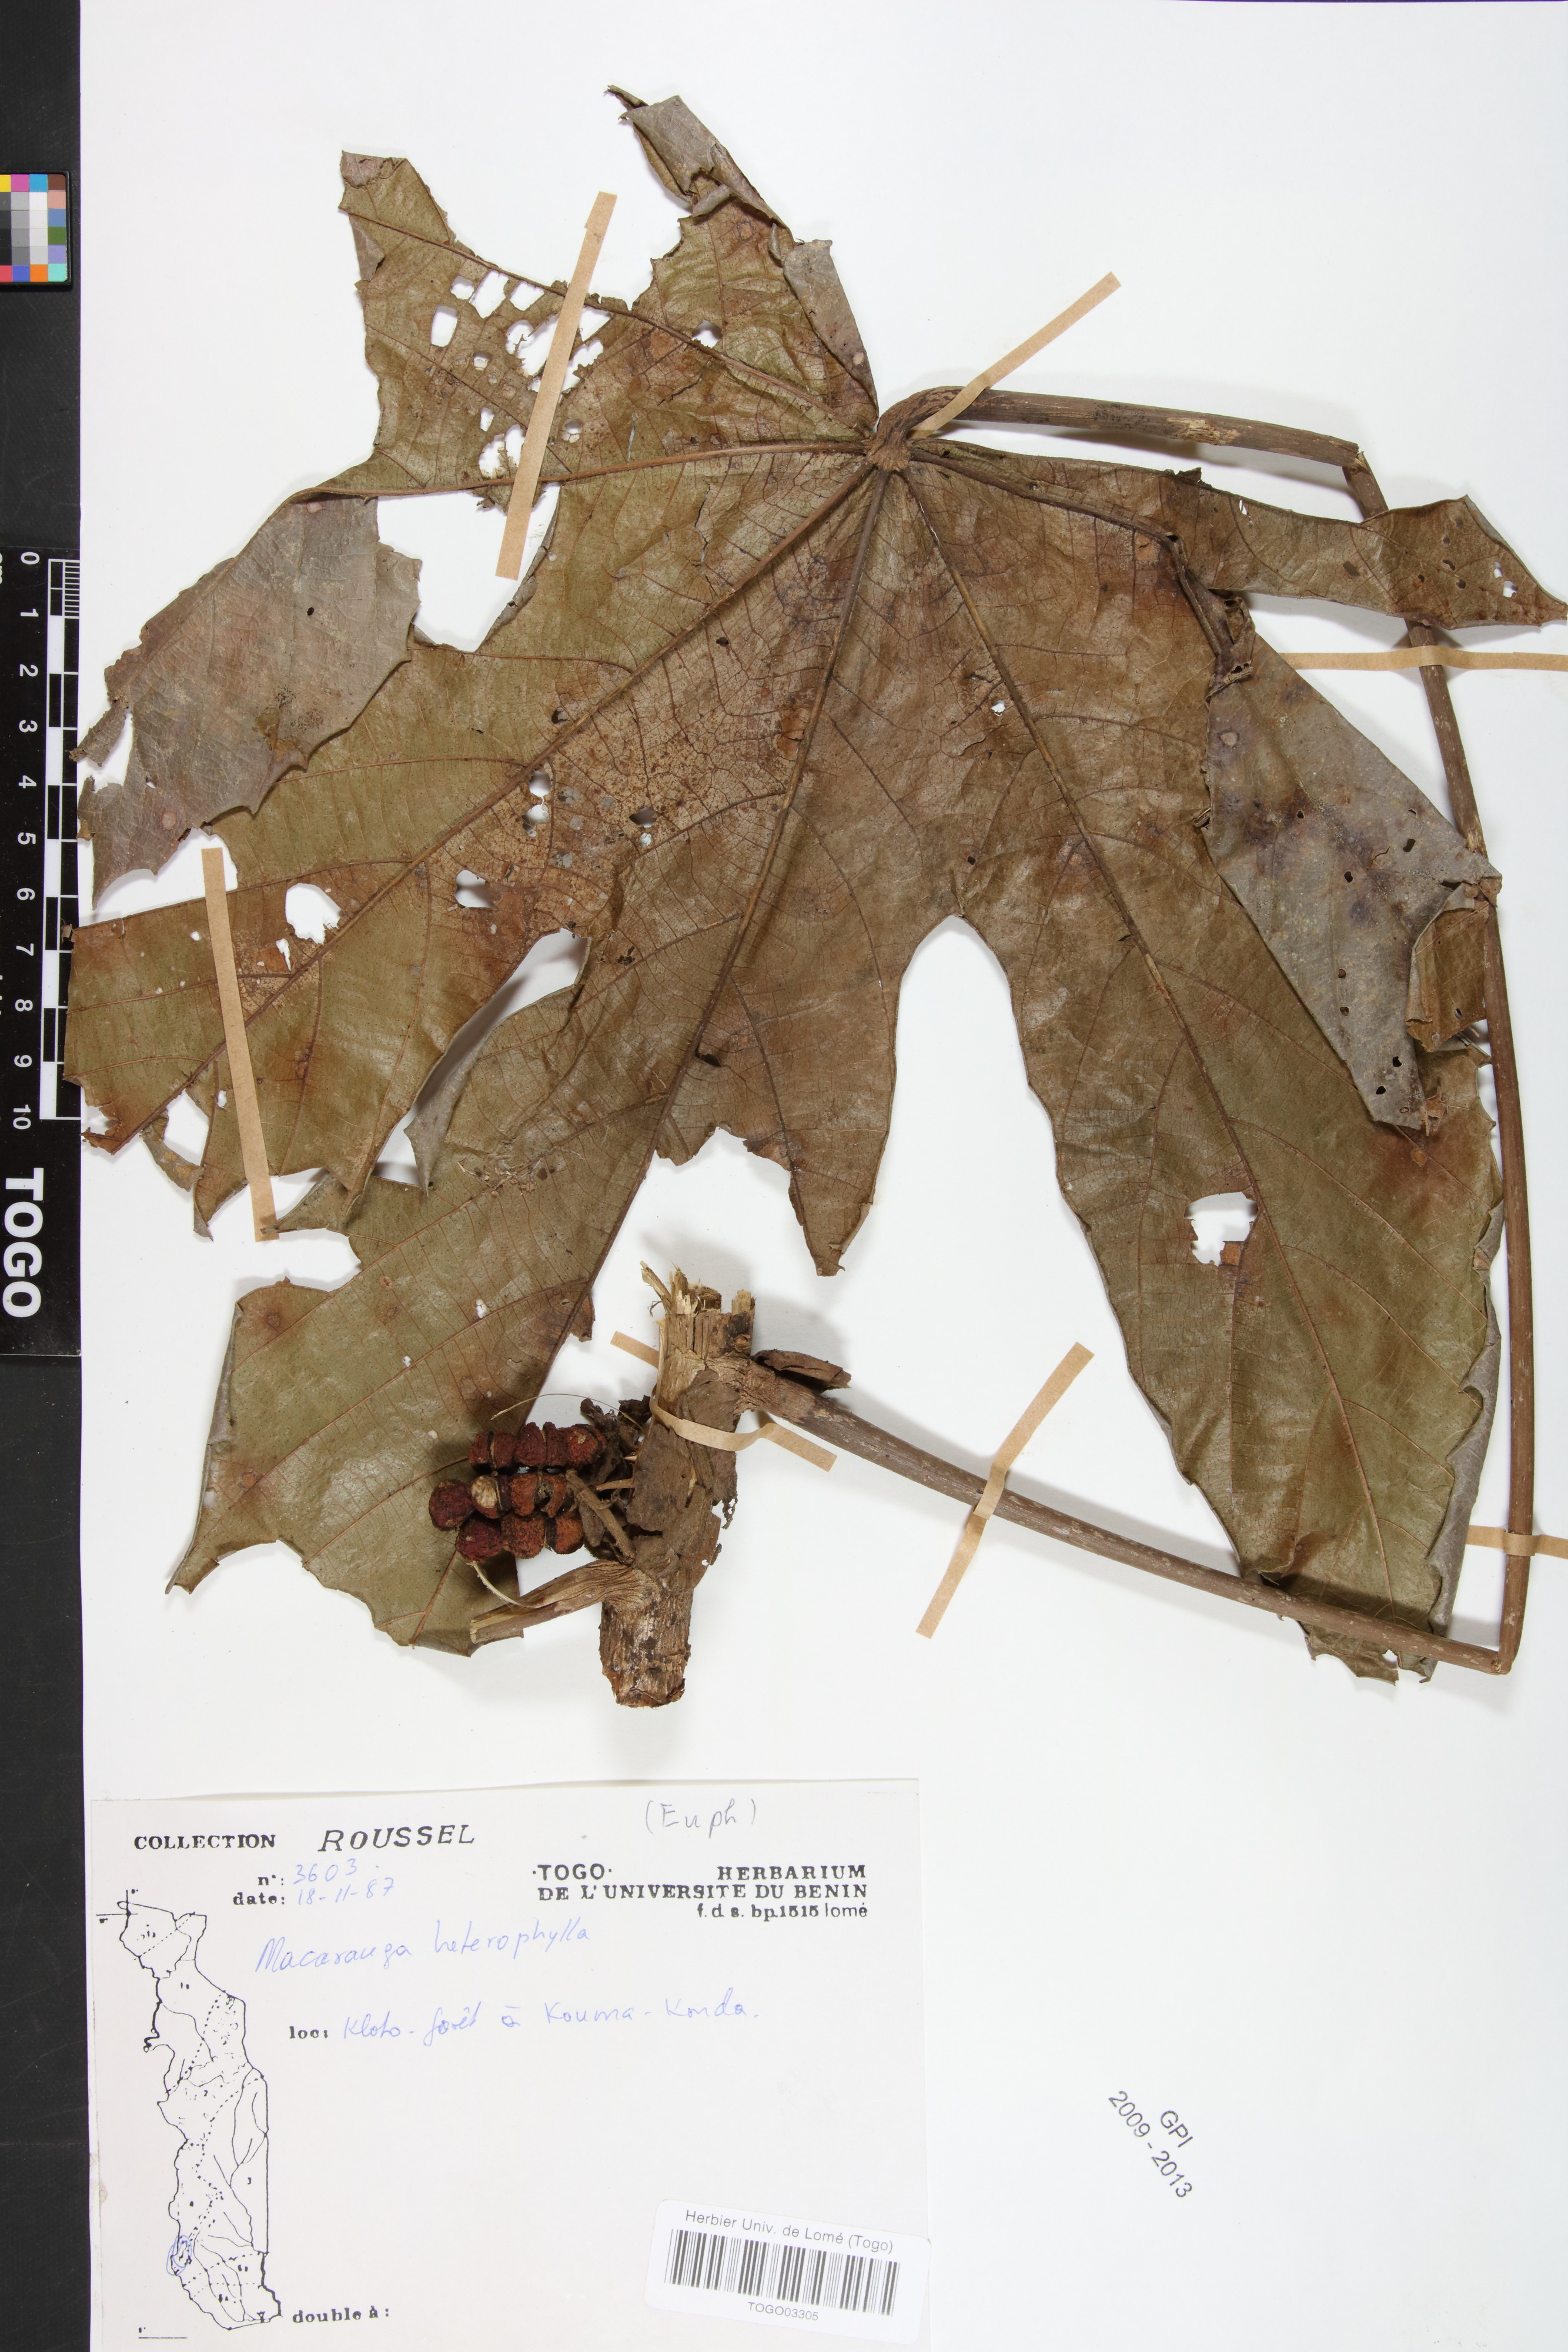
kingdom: Plantae
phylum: Tracheophyta
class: Magnoliopsida
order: Malpighiales
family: Euphorbiaceae
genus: Macaranga
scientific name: Macaranga heterophylla
